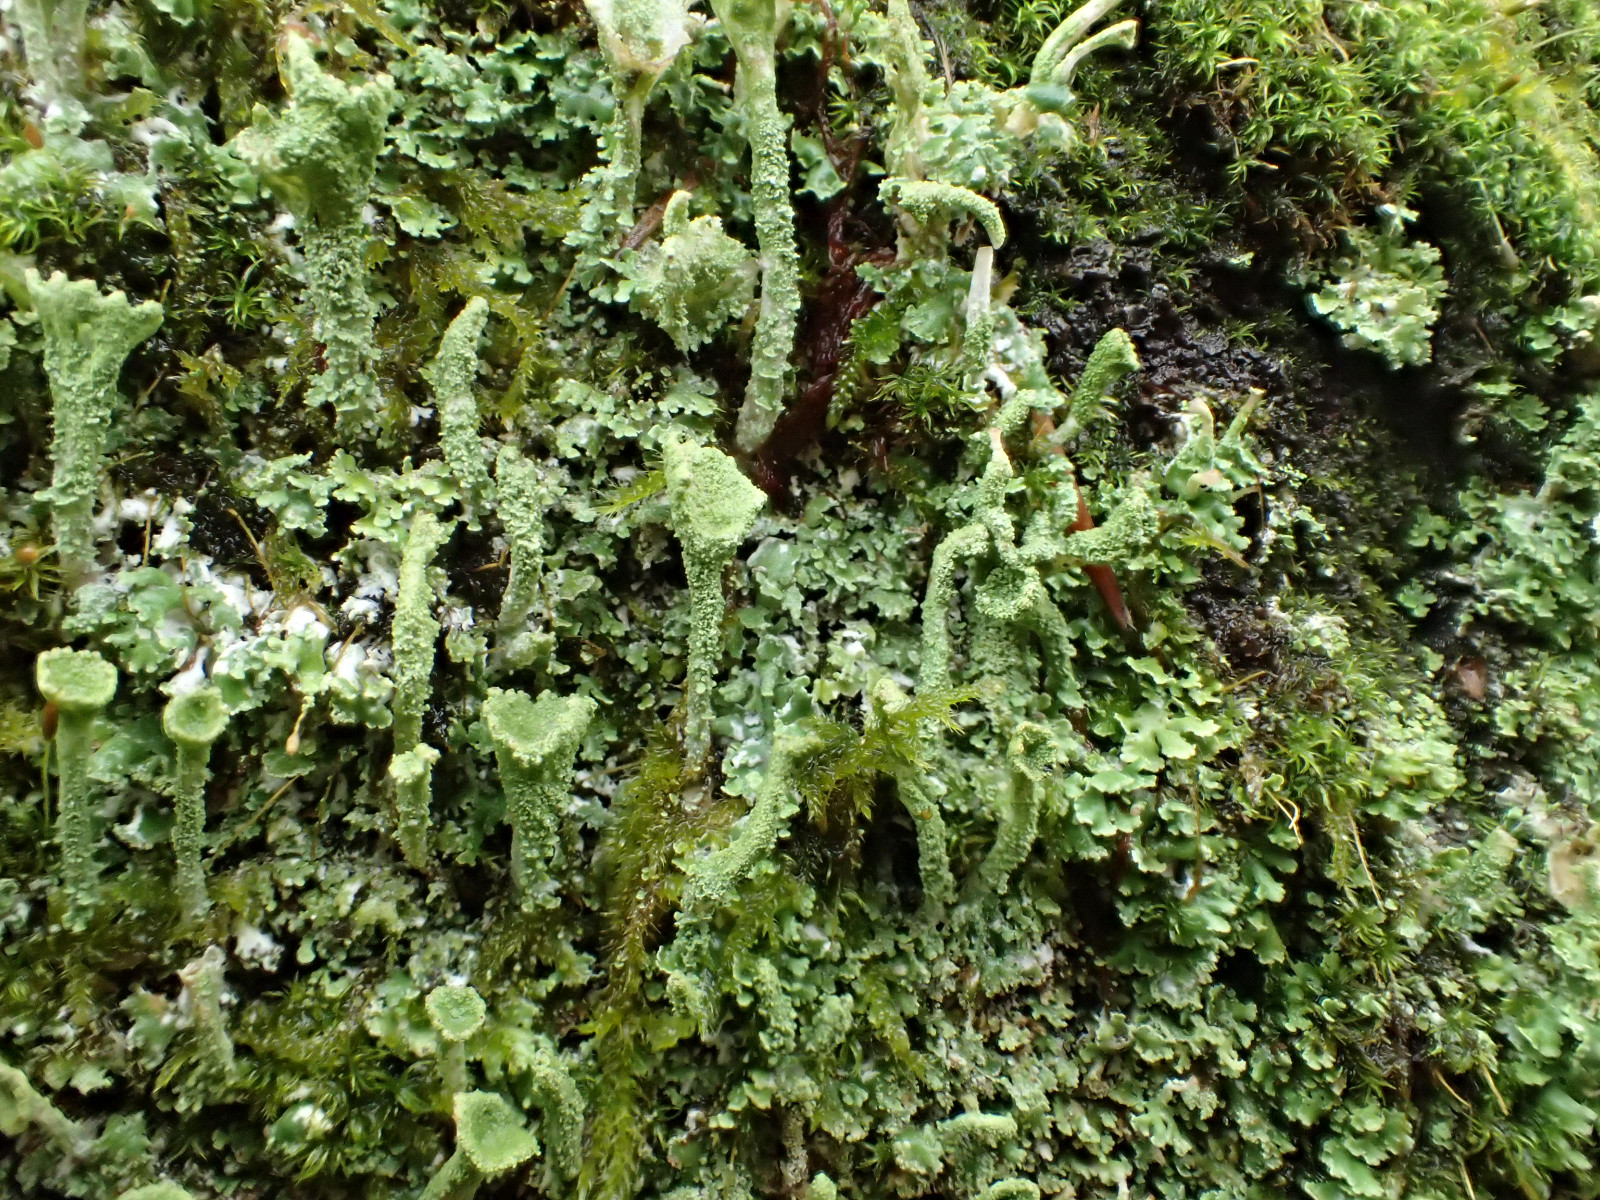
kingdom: Fungi
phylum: Ascomycota
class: Lecanoromycetes
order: Lecanorales
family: Cladoniaceae
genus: Cladonia
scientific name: Cladonia chlorophaea
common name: Mealy pixie cup
